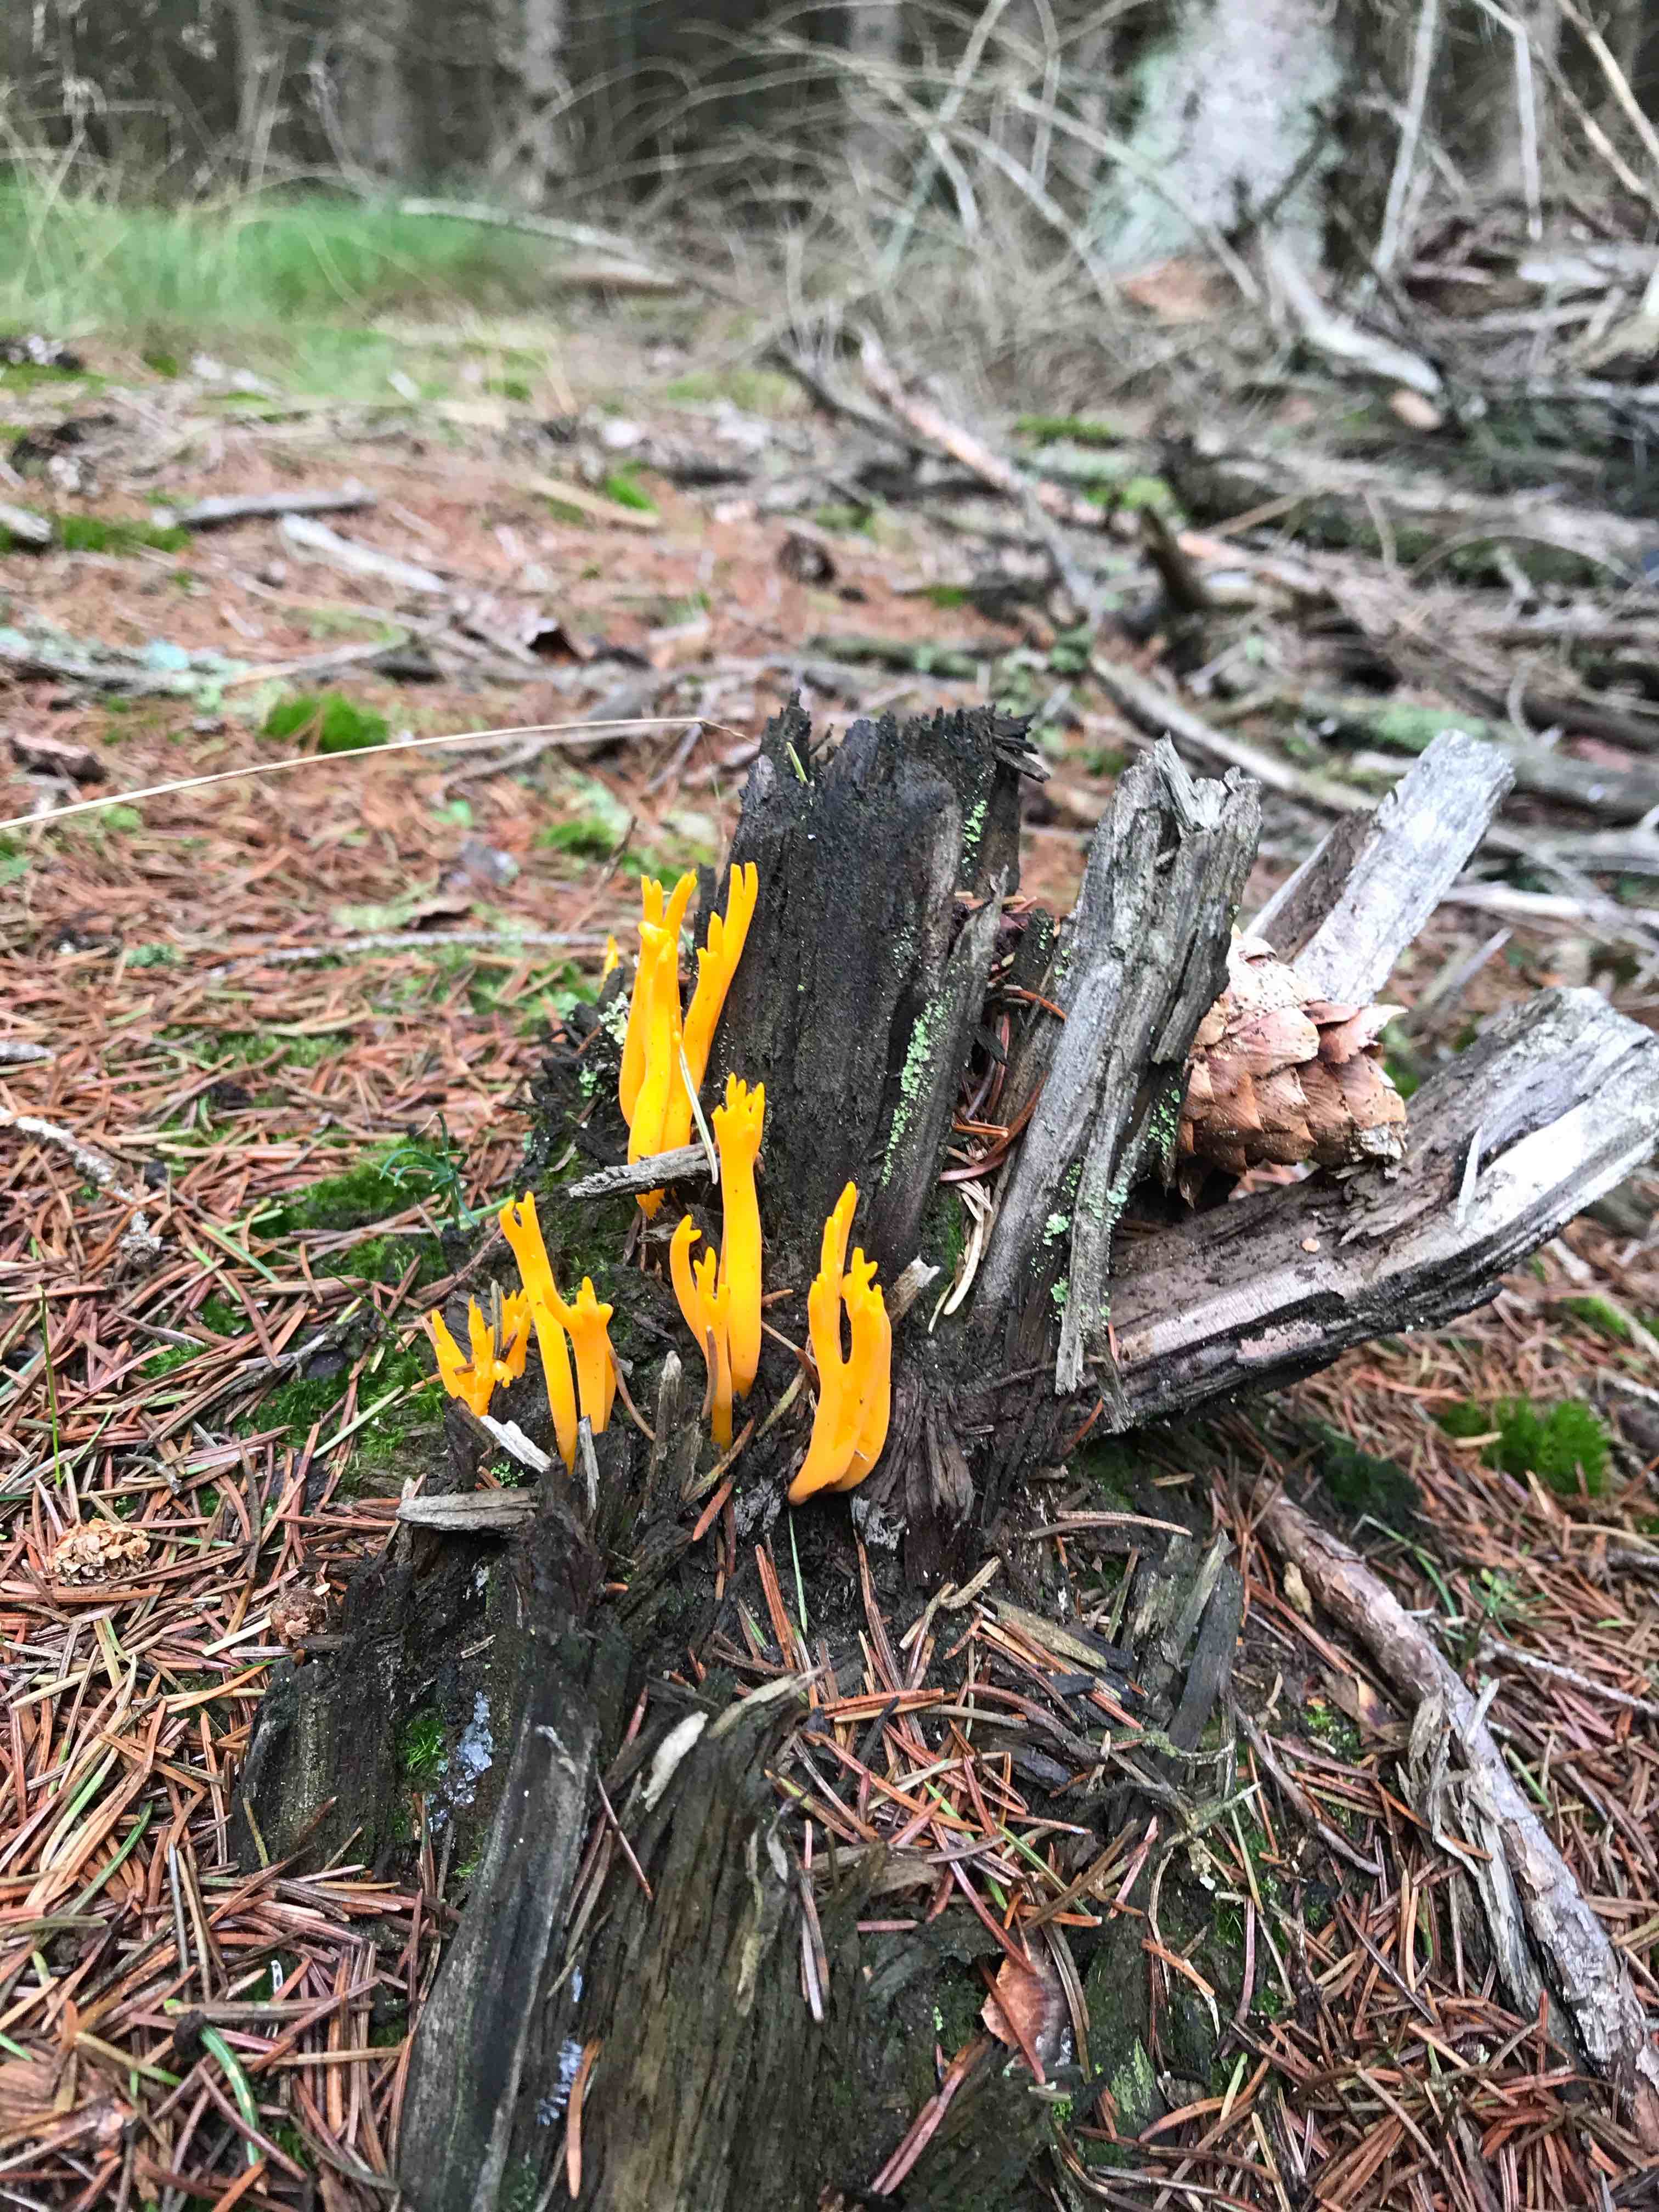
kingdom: Fungi
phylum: Basidiomycota
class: Dacrymycetes
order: Dacrymycetales
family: Dacrymycetaceae
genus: Calocera
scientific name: Calocera viscosa
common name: almindelig guldgaffel
